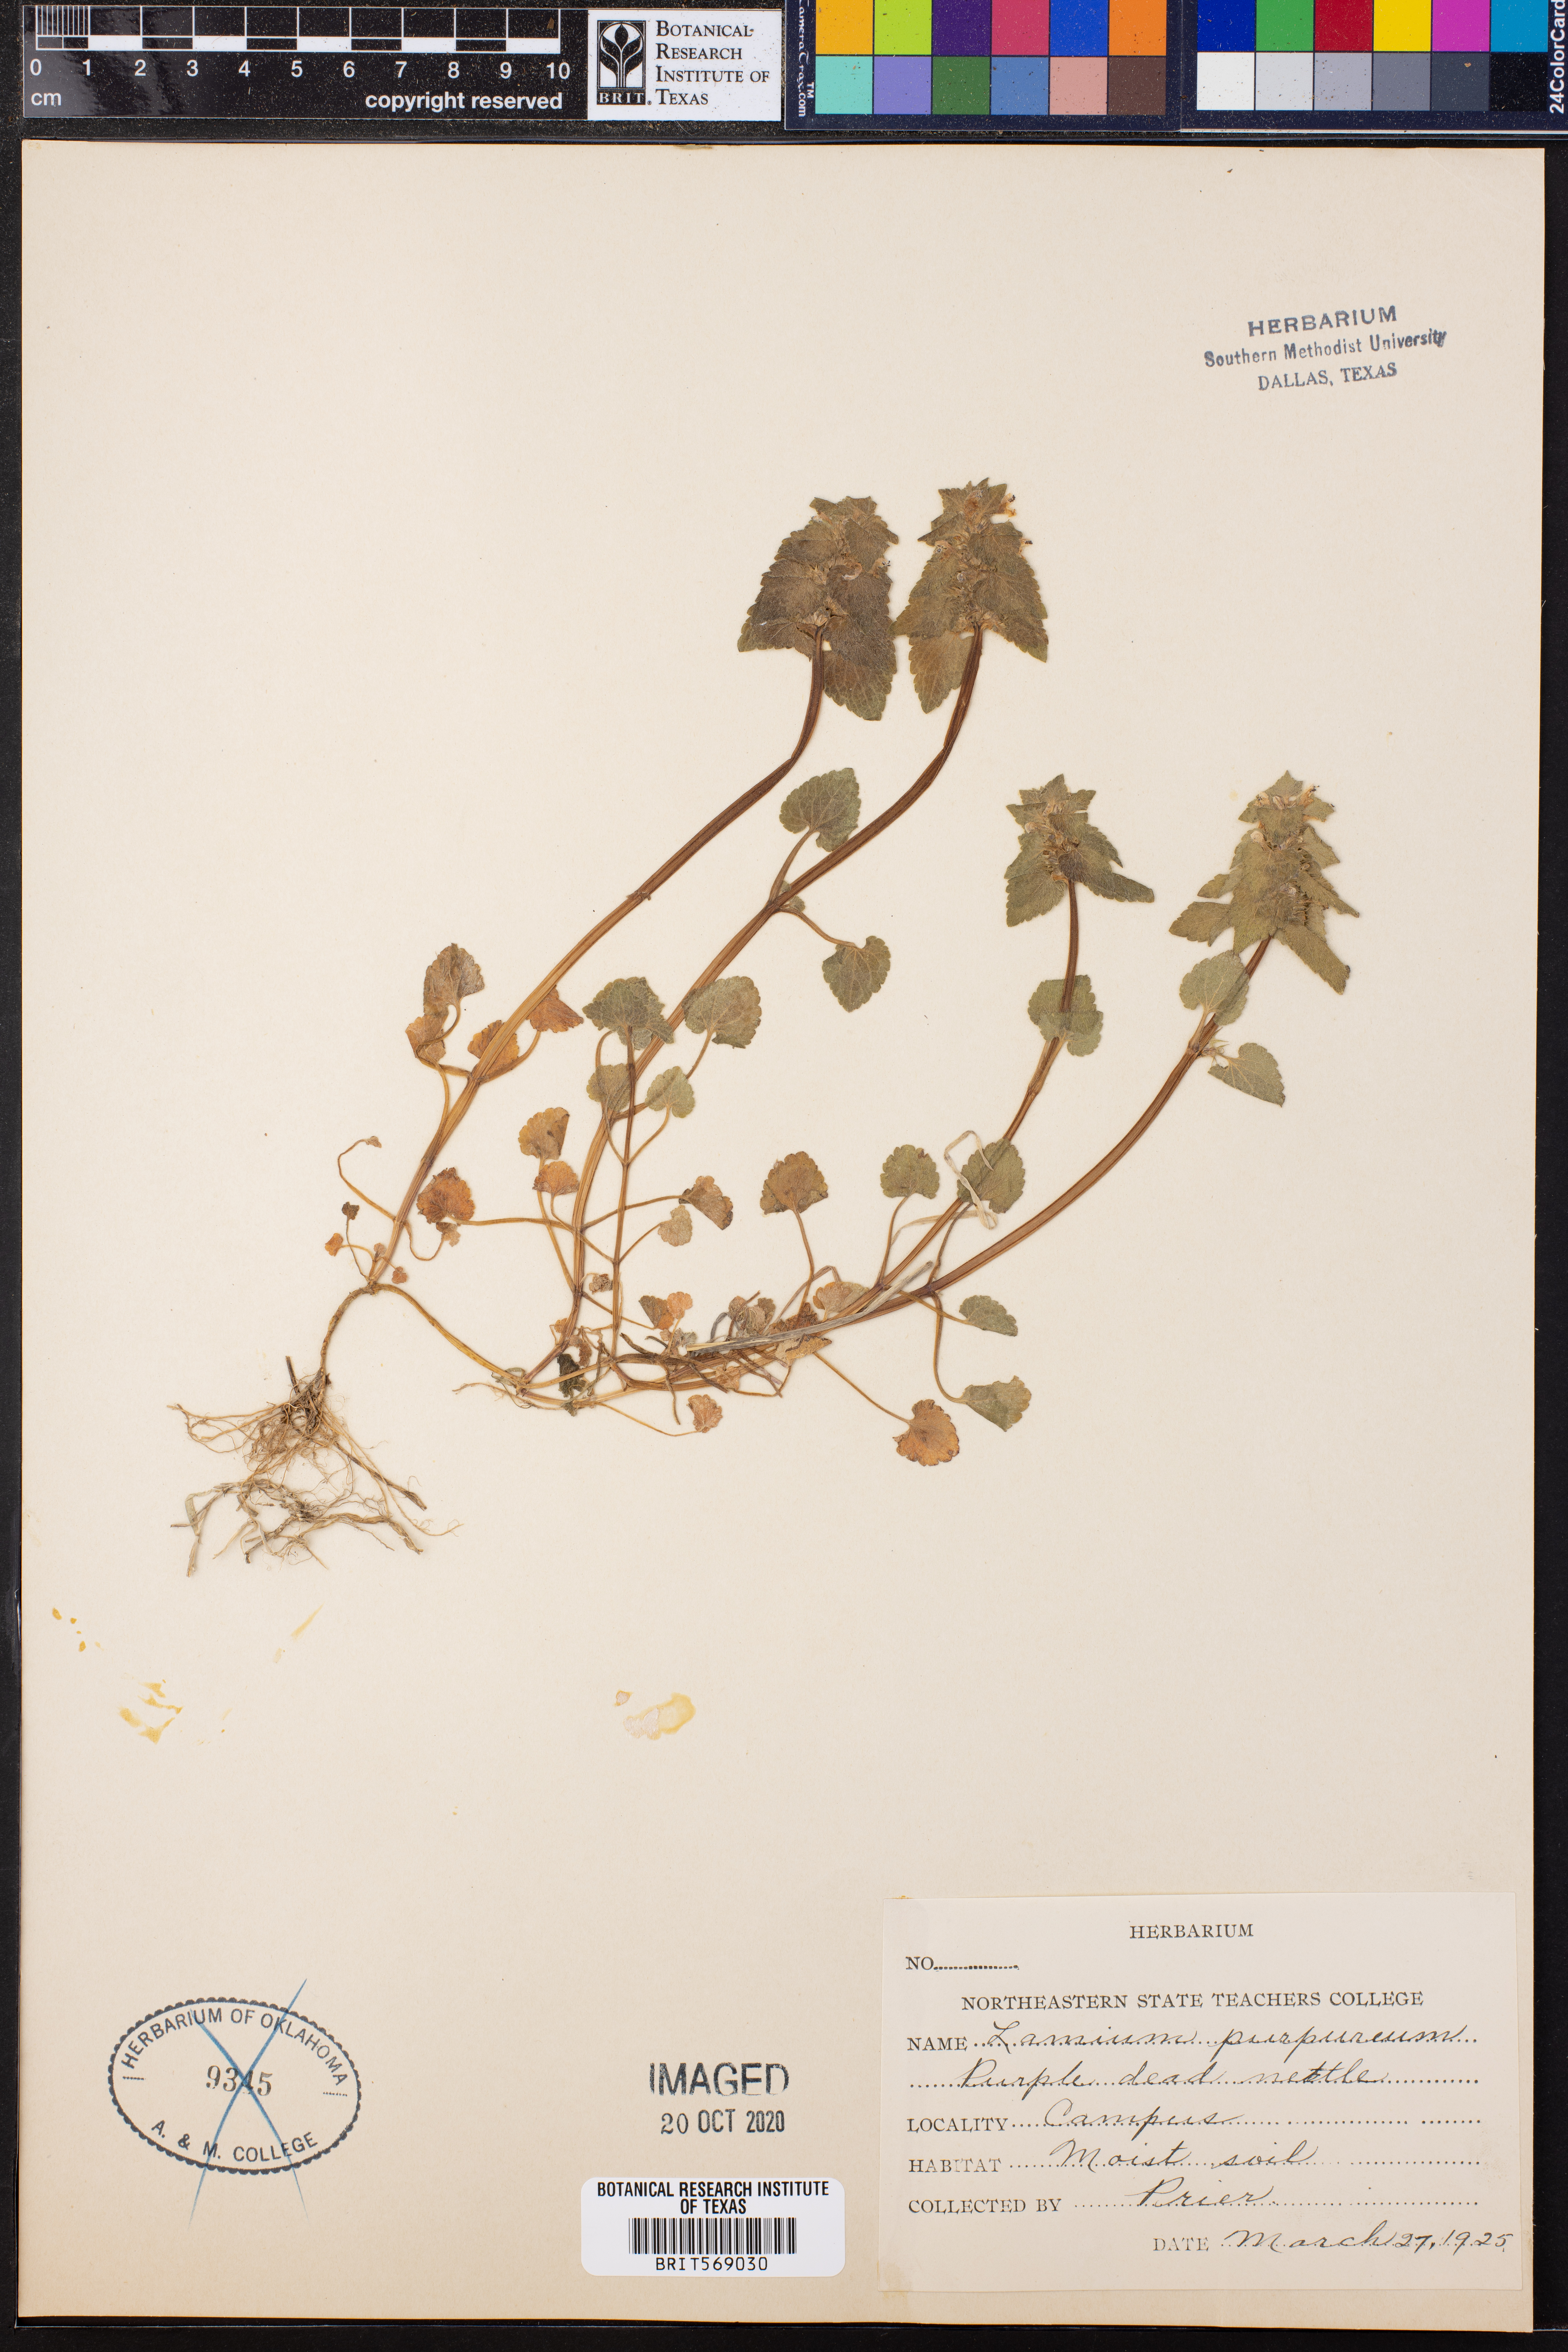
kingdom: Plantae
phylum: Tracheophyta
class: Magnoliopsida
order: Lamiales
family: Lamiaceae
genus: Lamium
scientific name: Lamium purpureum
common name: Red dead-nettle
